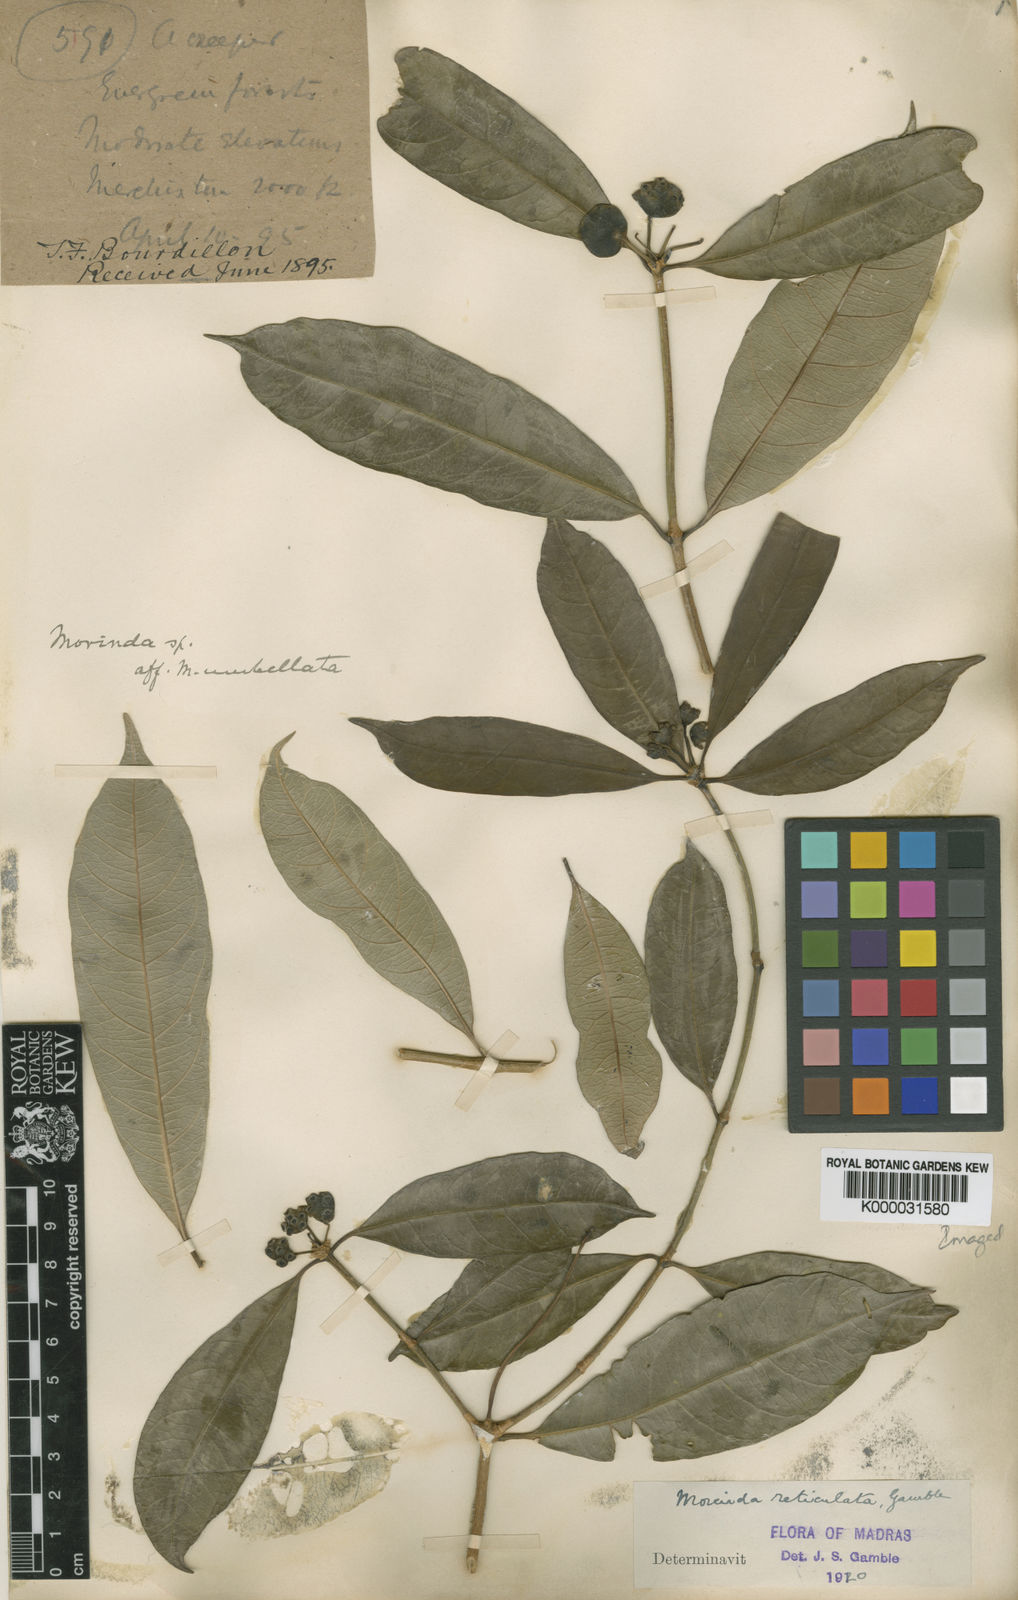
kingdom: Plantae
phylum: Tracheophyta
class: Magnoliopsida
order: Gentianales
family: Rubiaceae
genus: Gynochthodes
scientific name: Gynochthodes ridsdalei
